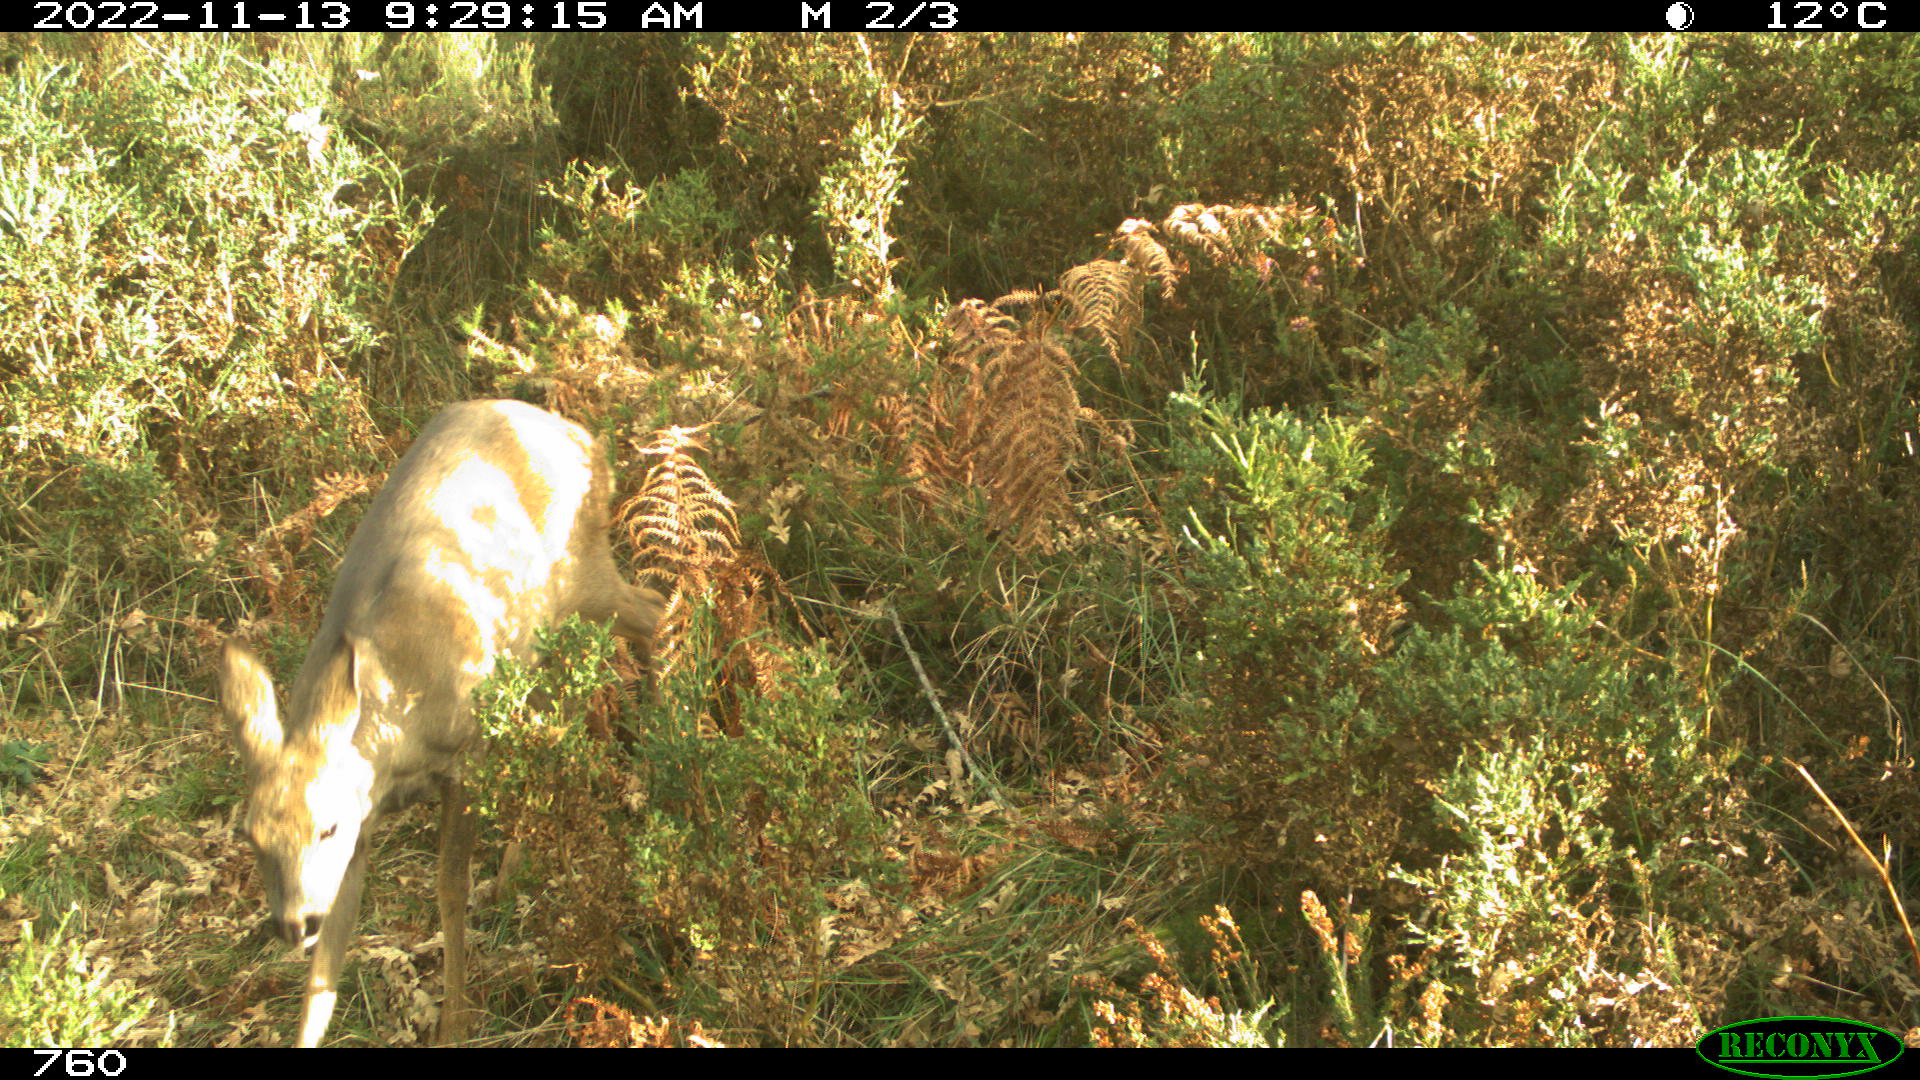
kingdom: Animalia
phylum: Chordata
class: Mammalia
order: Artiodactyla
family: Cervidae
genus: Capreolus
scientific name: Capreolus capreolus
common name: Western roe deer
